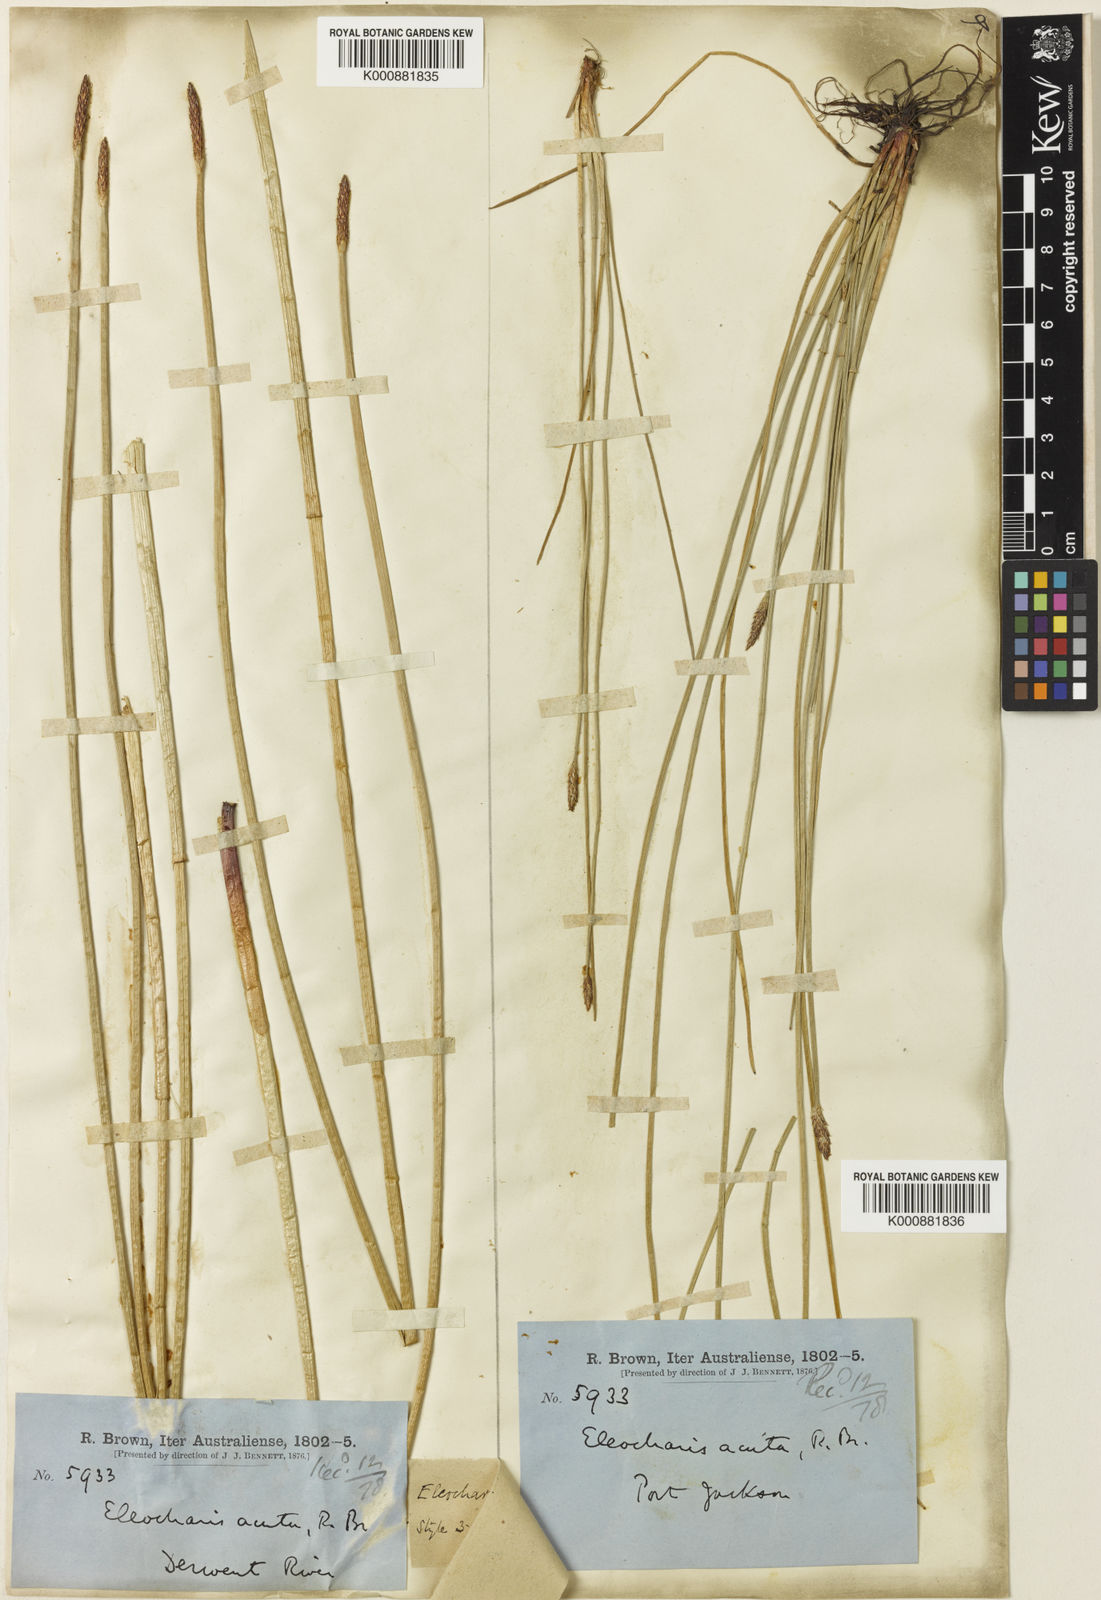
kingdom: Plantae
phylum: Tracheophyta
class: Liliopsida
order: Poales
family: Cyperaceae
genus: Eleocharis
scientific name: Eleocharis acuta
